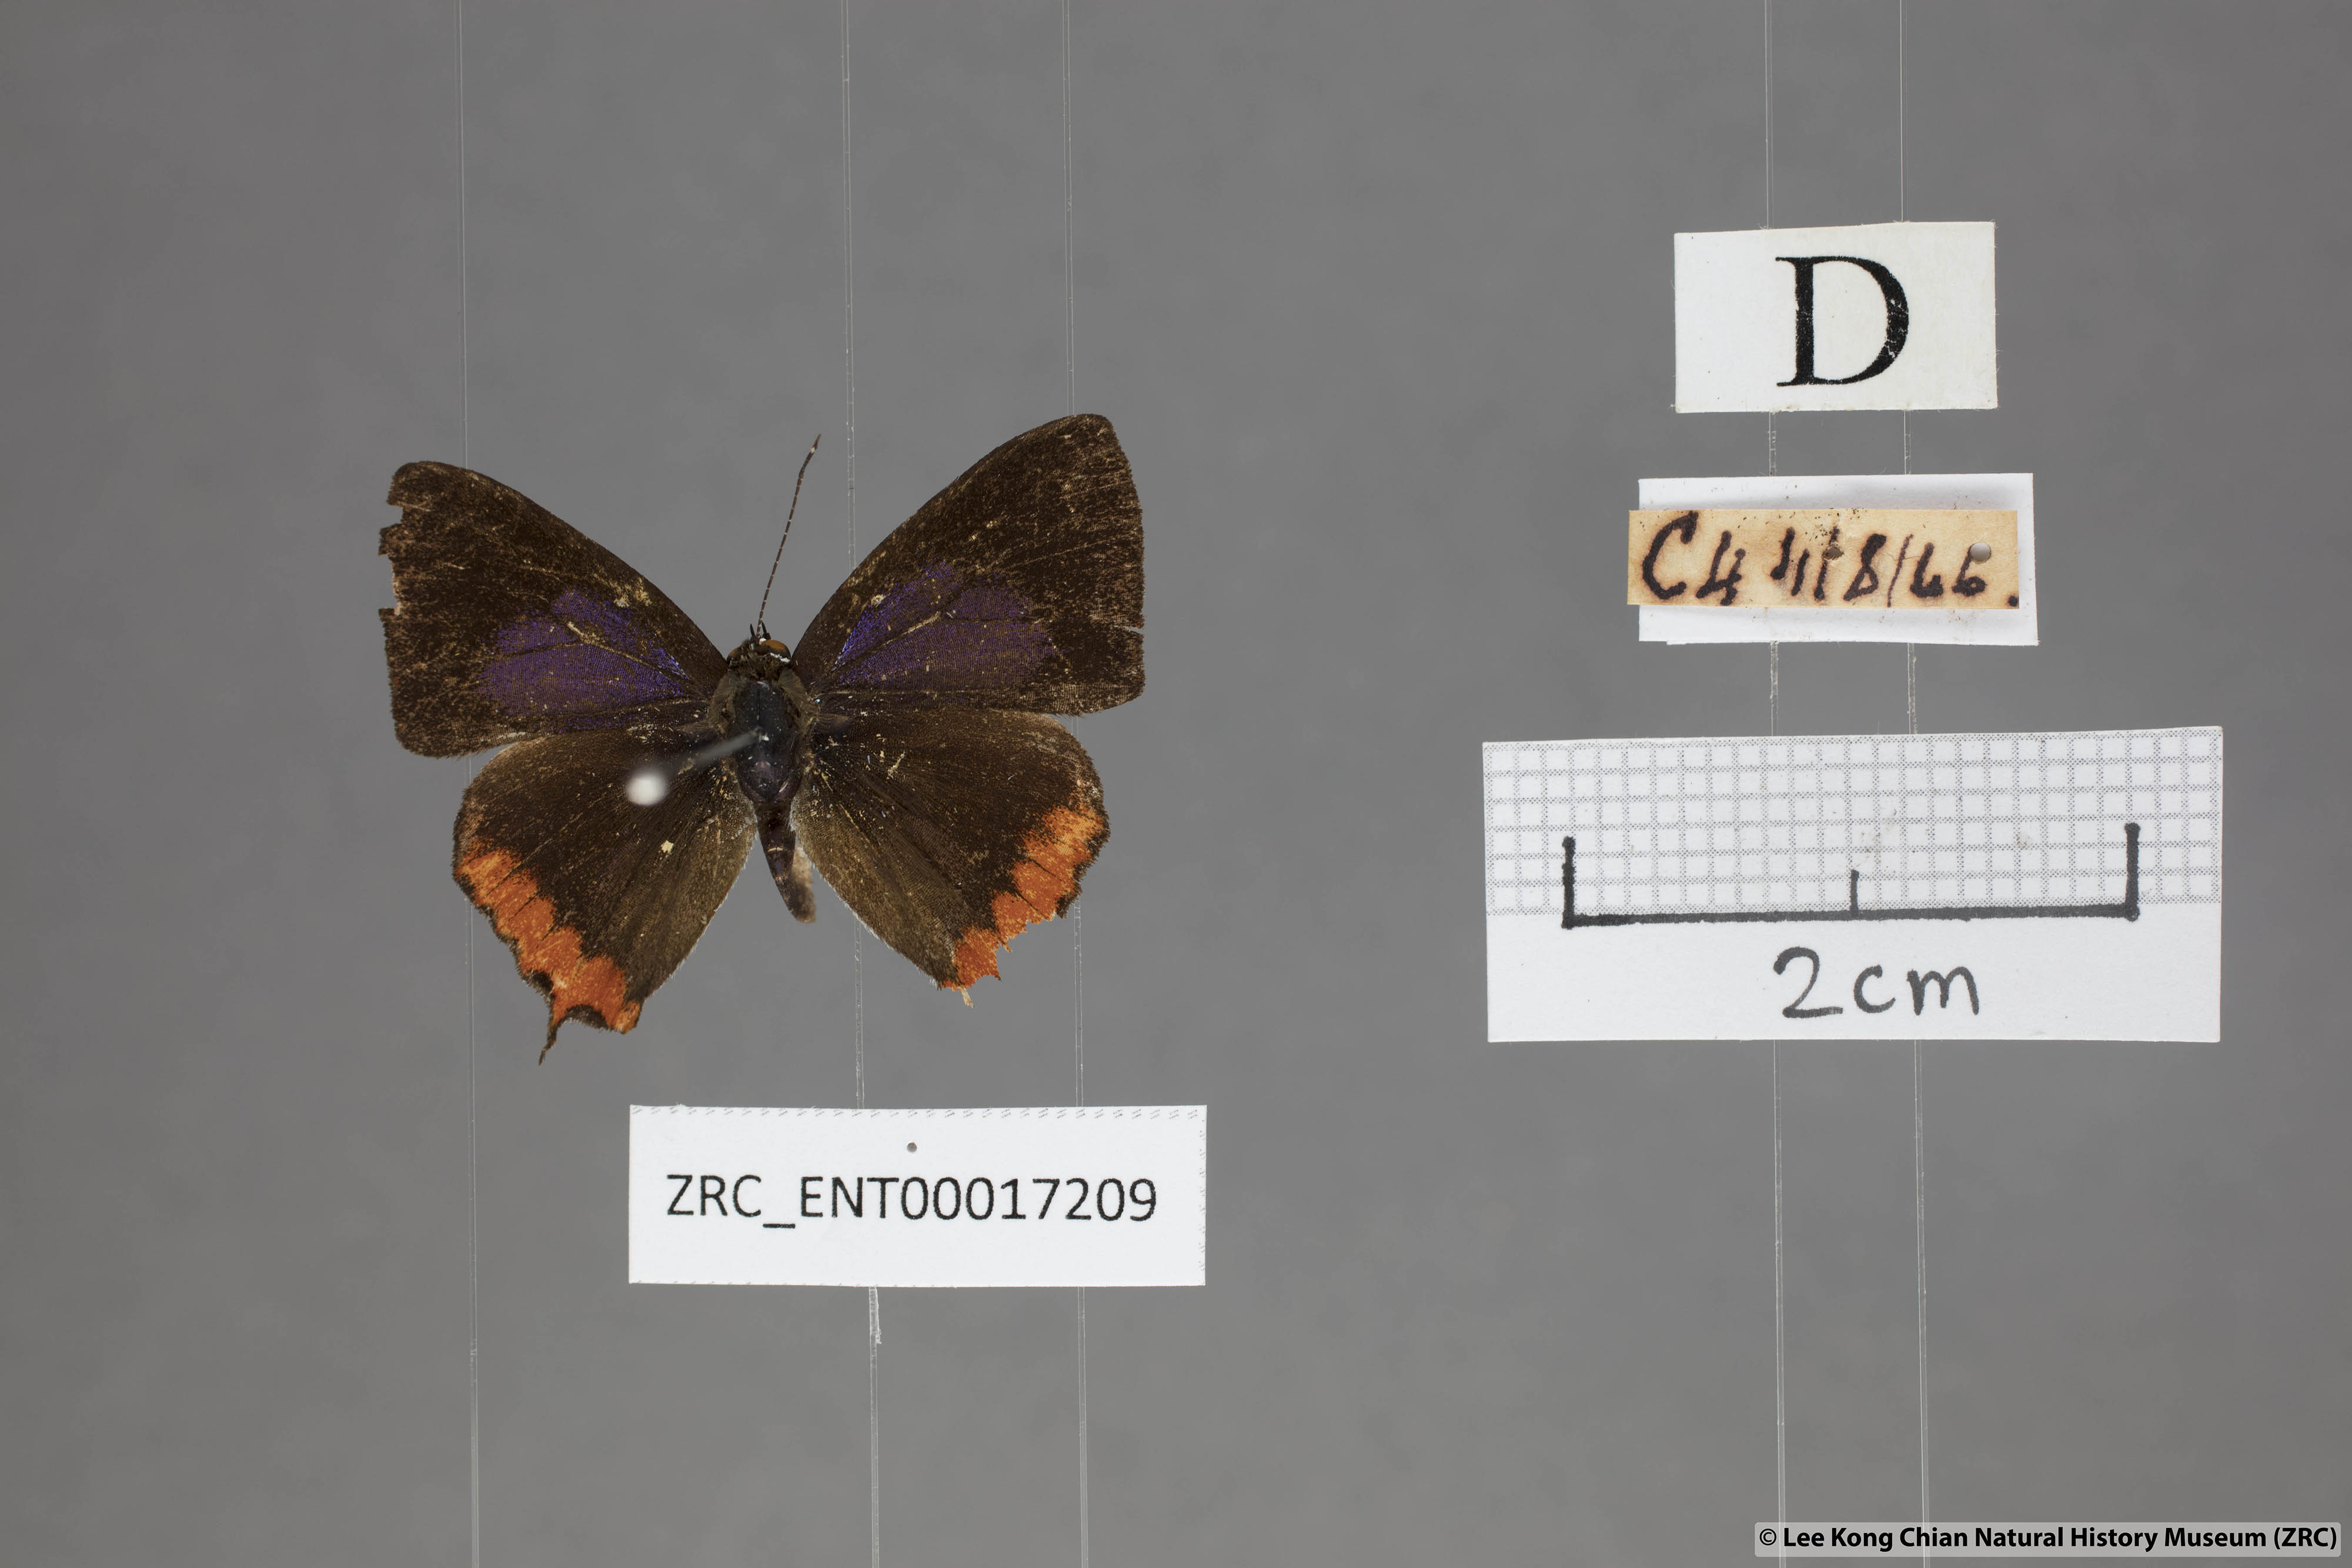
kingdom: Animalia
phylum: Arthropoda
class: Insecta
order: Lepidoptera
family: Lycaenidae
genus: Heliophorus
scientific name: Heliophorus ila
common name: Restricted purple sapphire
